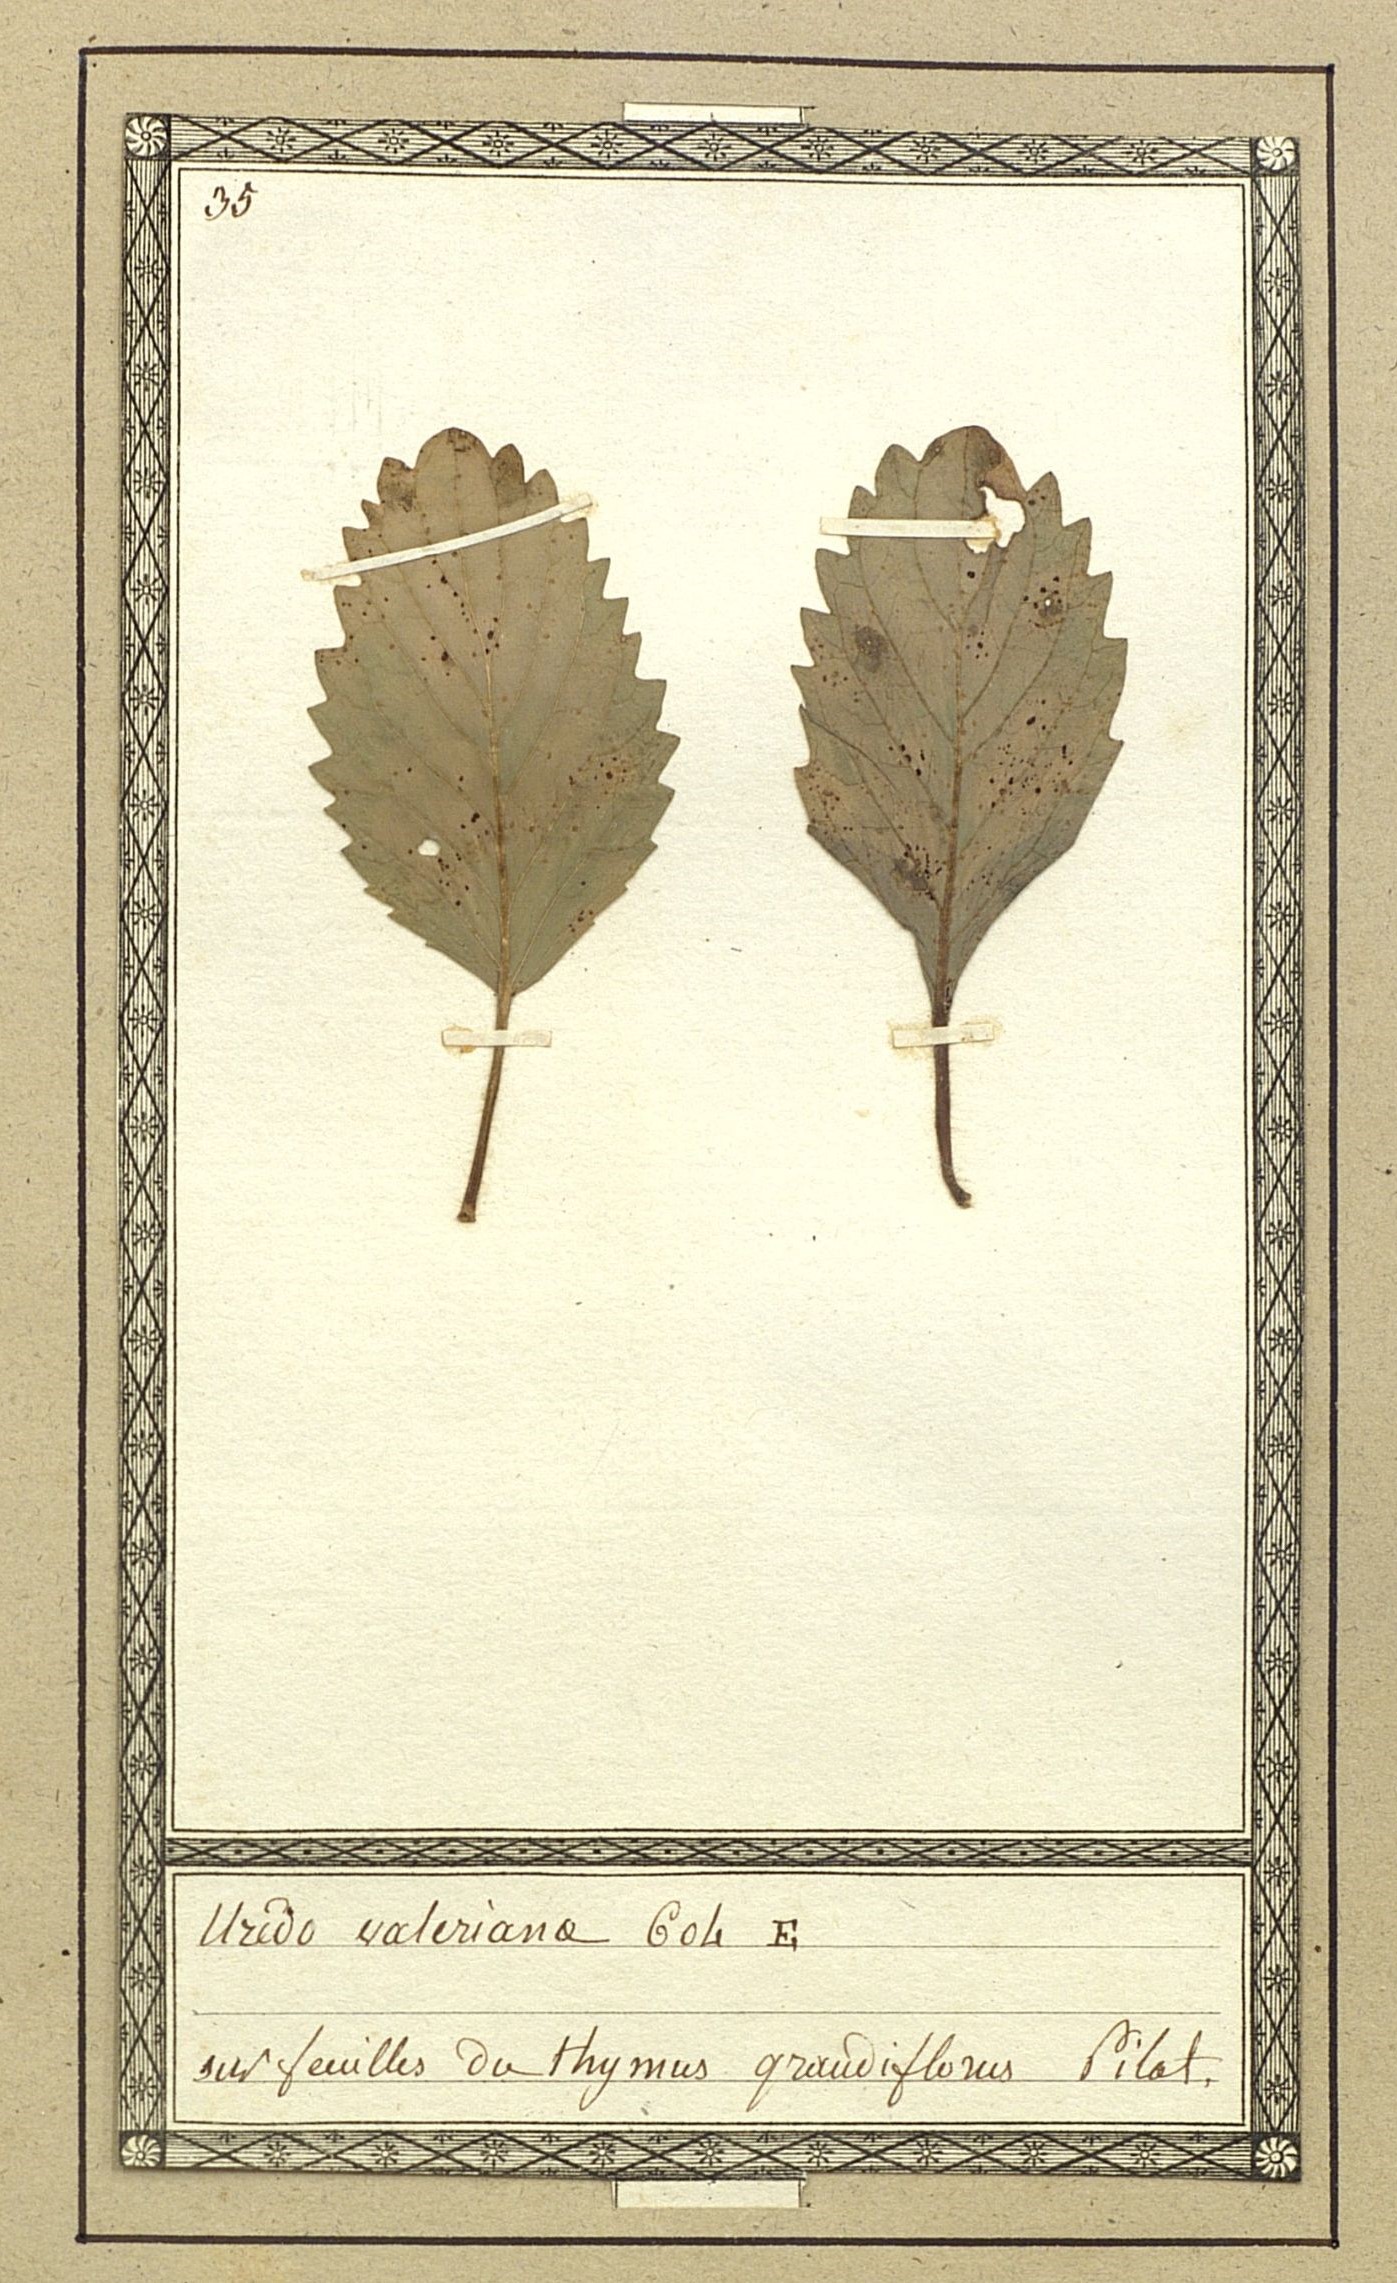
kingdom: Fungi
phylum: Basidiomycota
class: Pucciniomycetes
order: Pucciniales
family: Pucciniaceae
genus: Uromyces
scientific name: Uromyces valerianae
